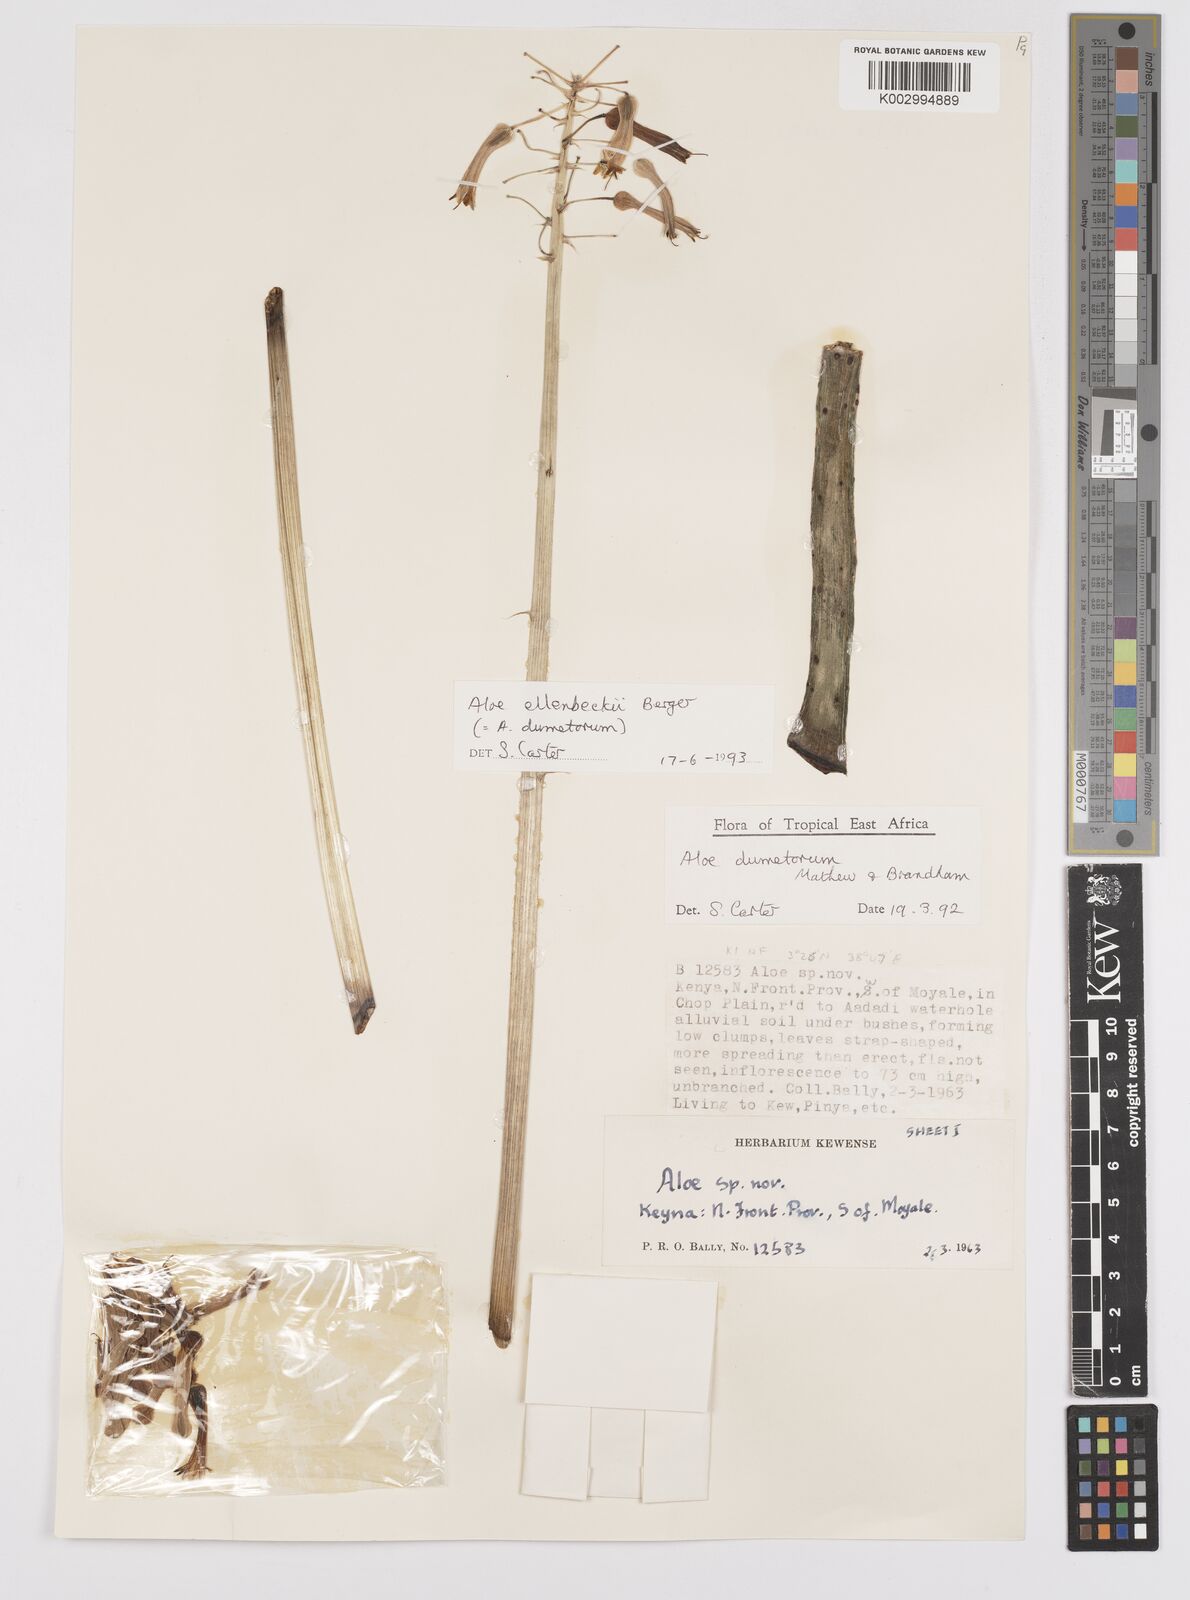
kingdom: Plantae
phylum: Tracheophyta
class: Liliopsida
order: Asparagales
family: Asphodelaceae
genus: Aloe
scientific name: Aloe ellenbeckii
